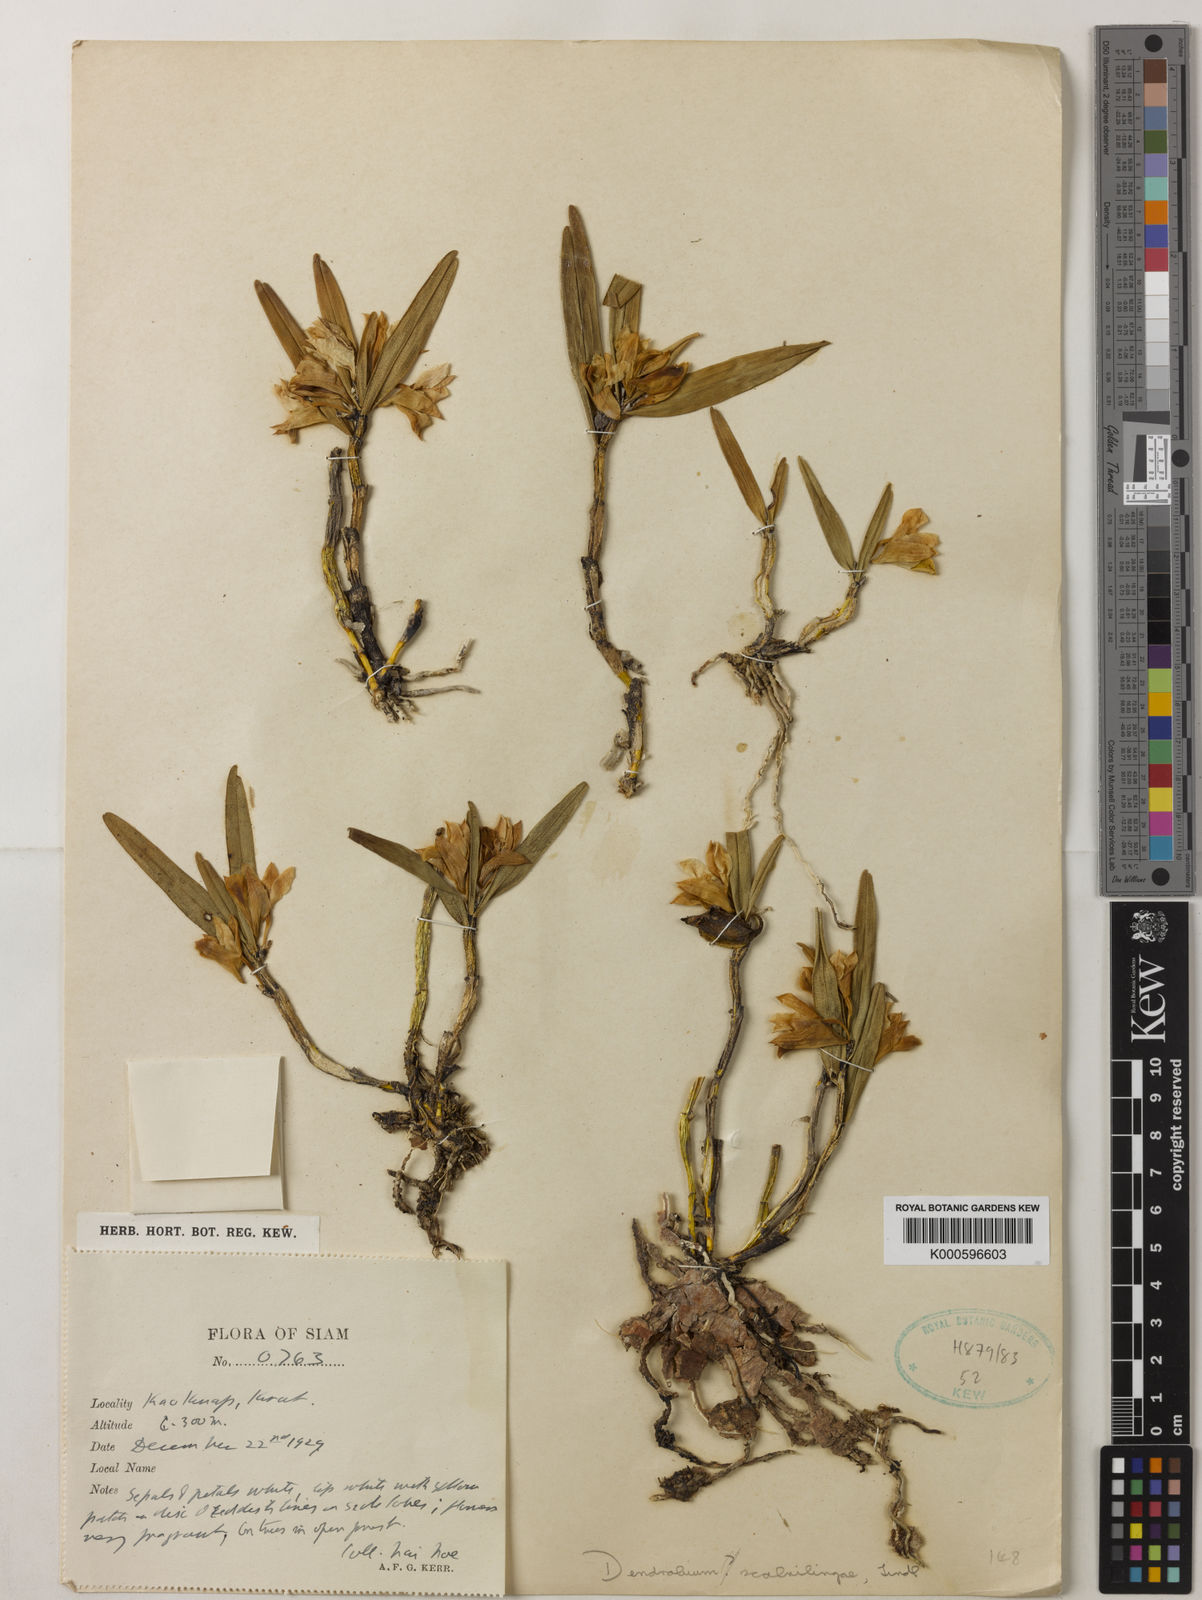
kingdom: Plantae
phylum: Tracheophyta
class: Liliopsida
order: Asparagales
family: Orchidaceae
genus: Dendrobium
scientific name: Dendrobium scabrilingue
